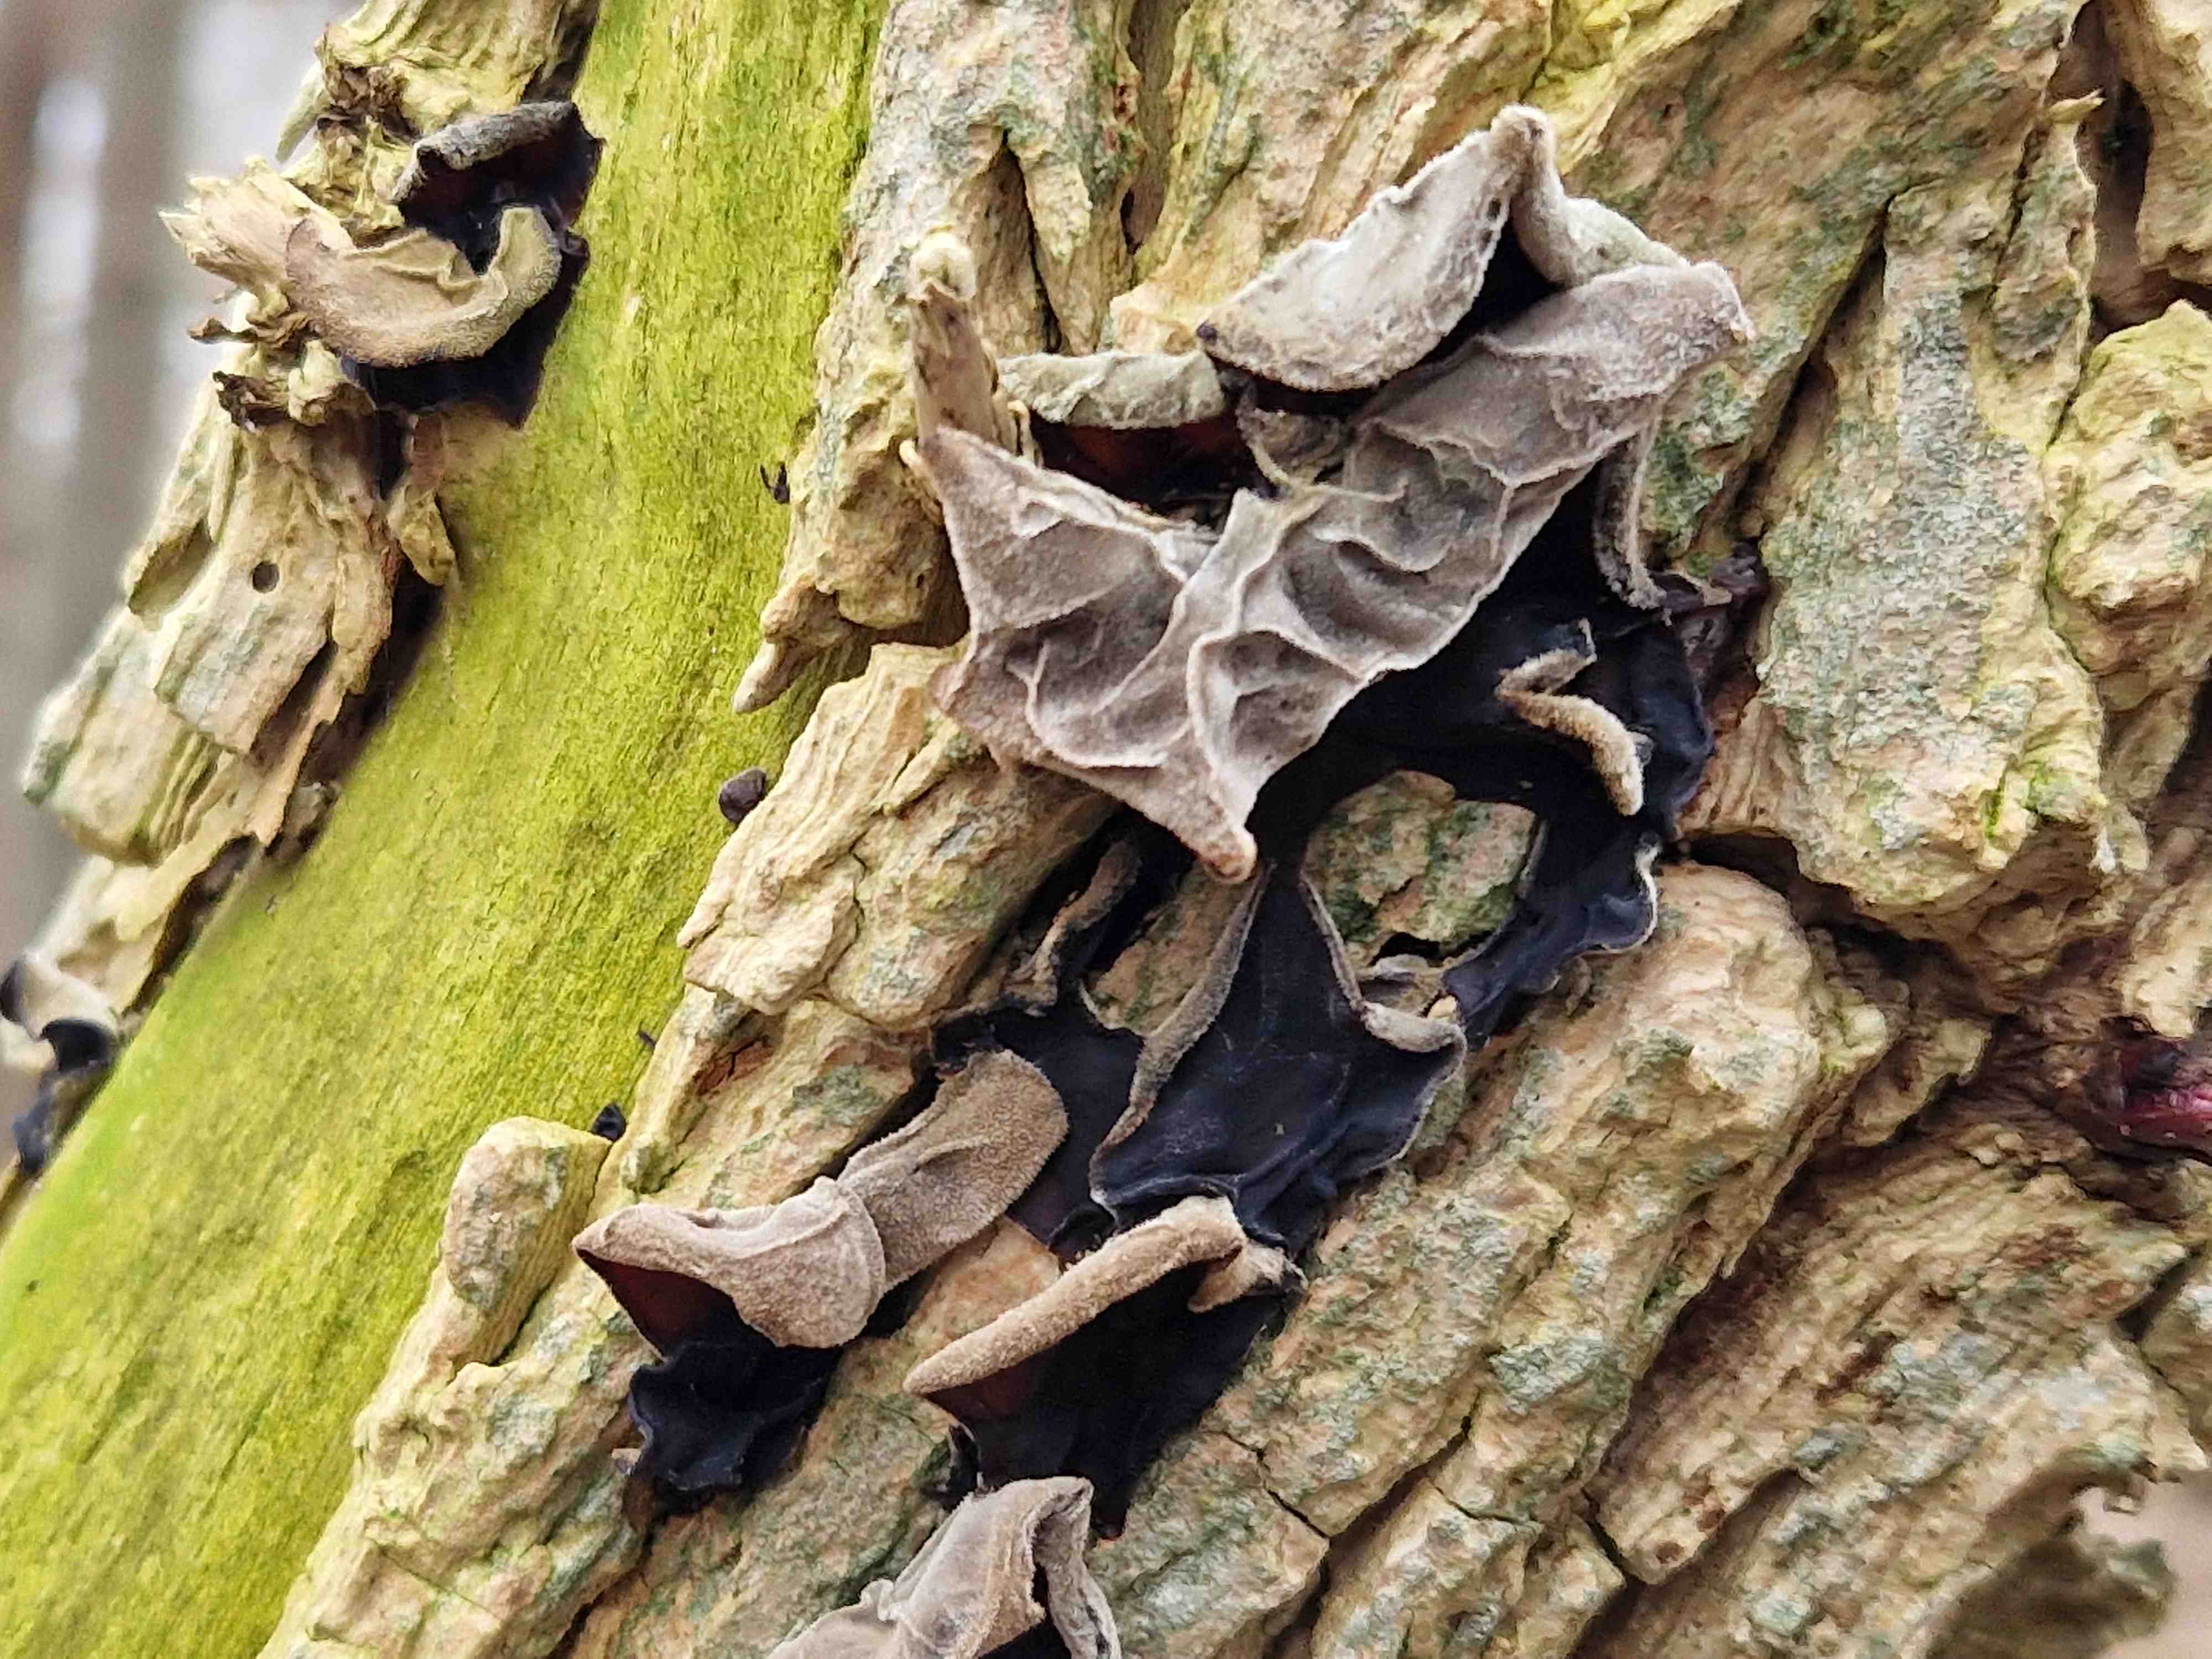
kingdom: Fungi
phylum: Basidiomycota
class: Agaricomycetes
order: Auriculariales
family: Auriculariaceae
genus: Auricularia
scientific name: Auricularia auricula-judae
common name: almindelig judasøre
